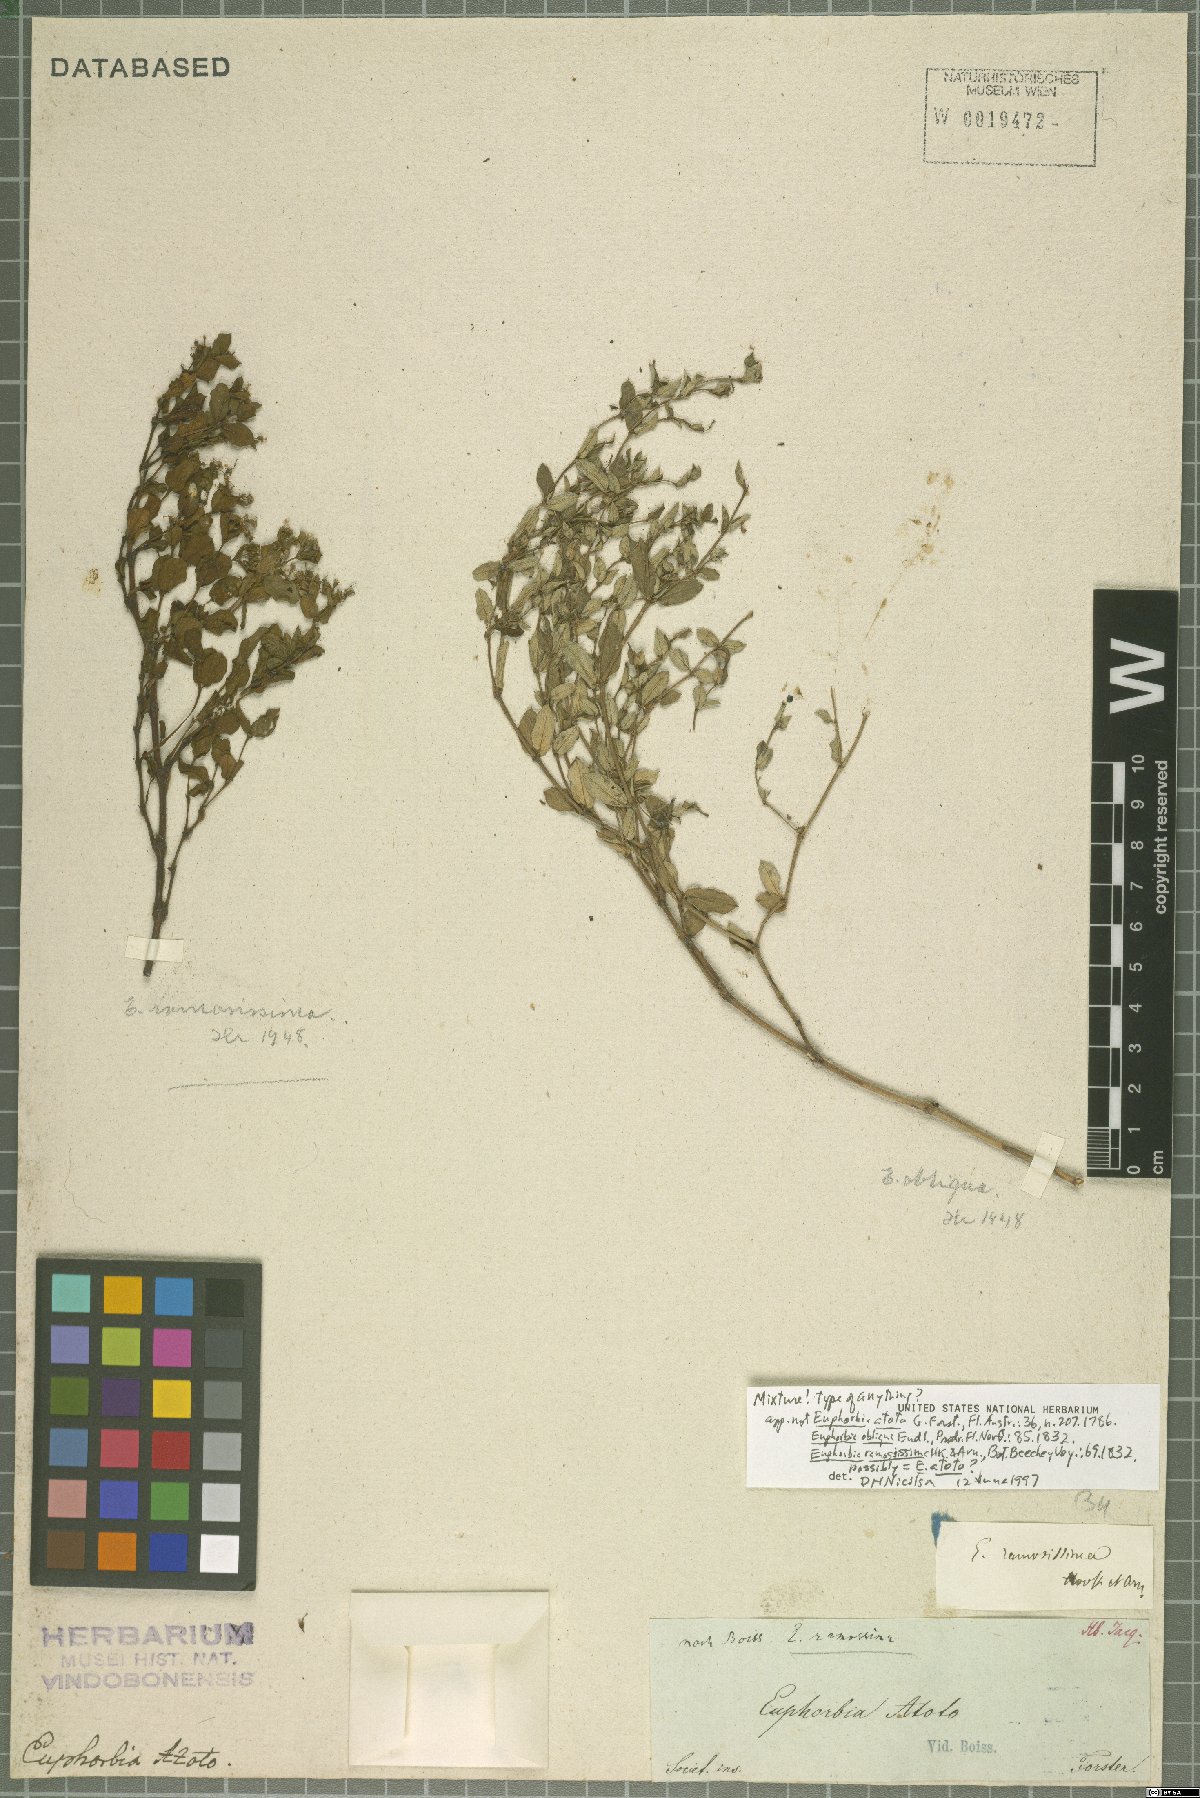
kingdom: Plantae
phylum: Tracheophyta
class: Magnoliopsida
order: Malpighiales
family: Euphorbiaceae
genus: Euphorbia
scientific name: Euphorbia sparrmanni
